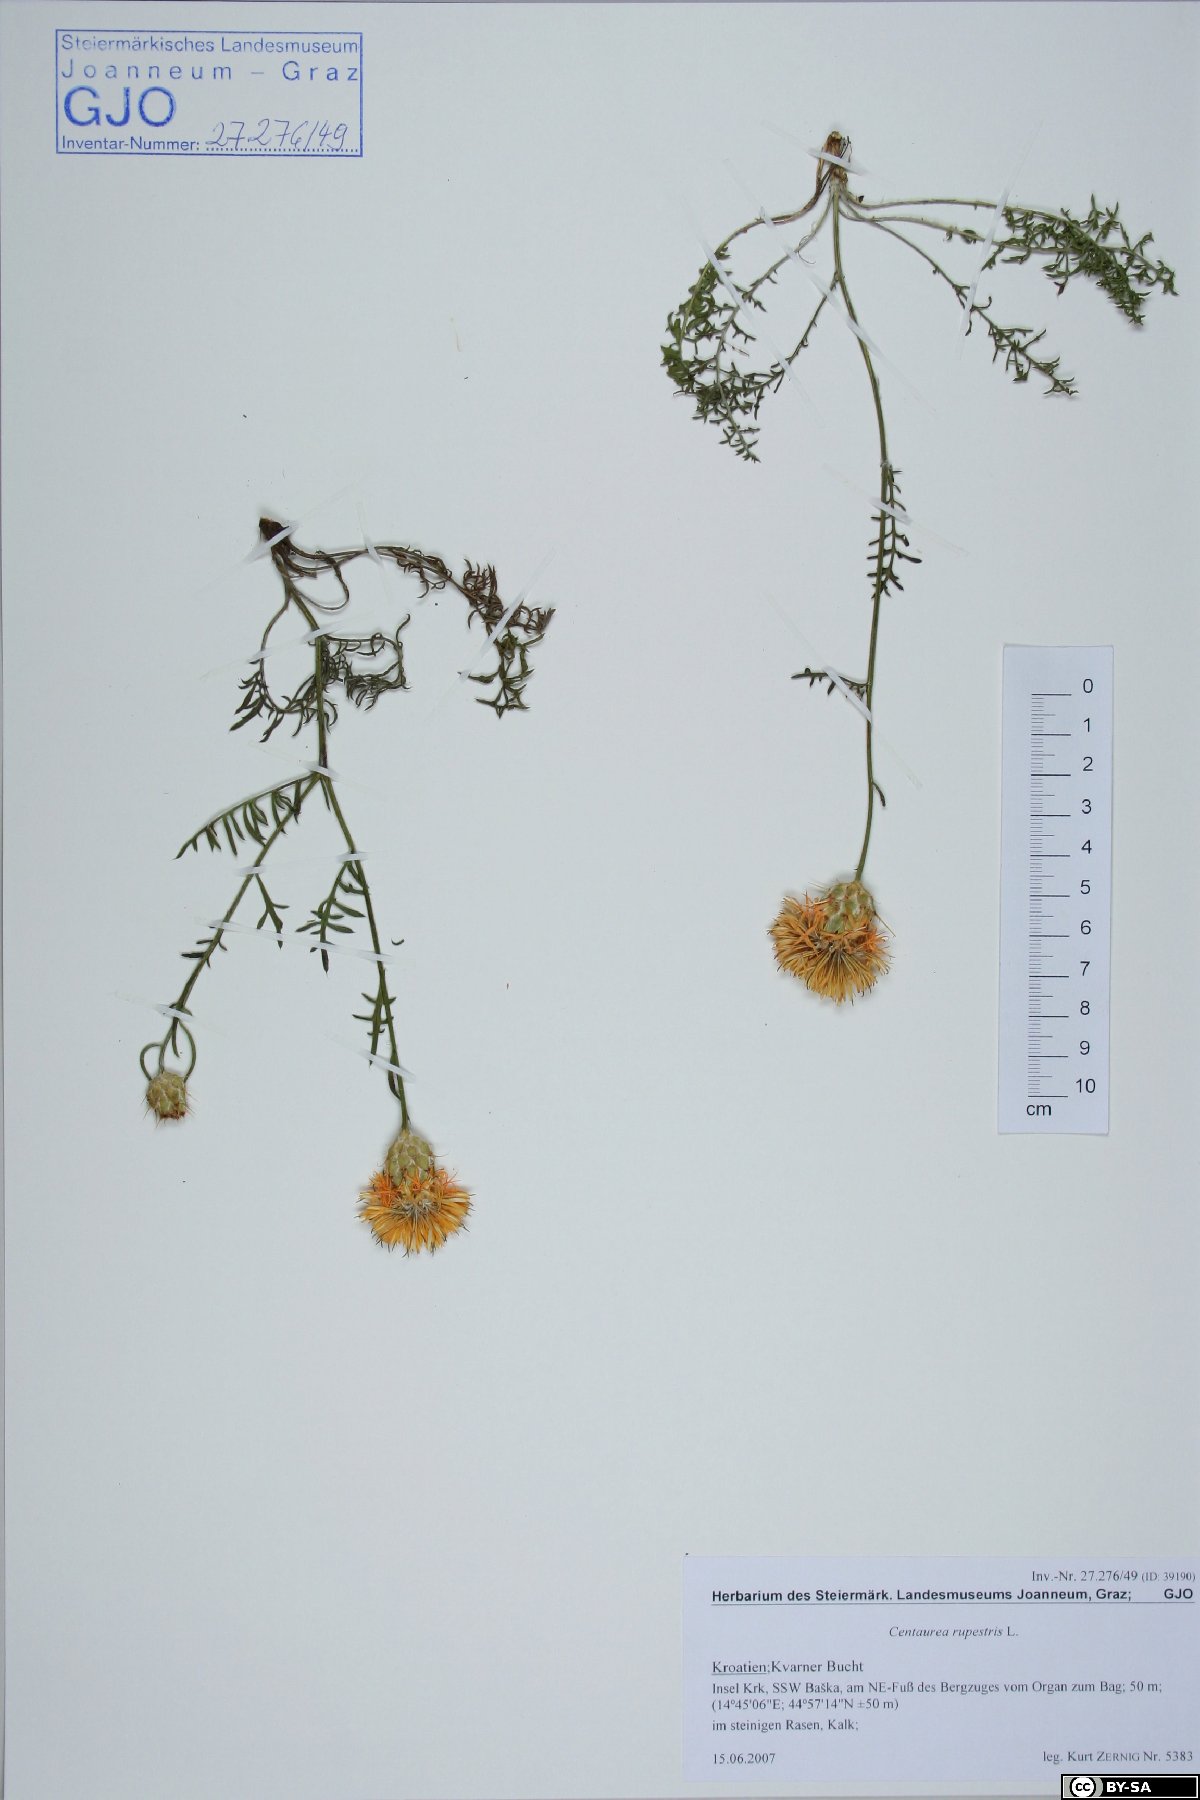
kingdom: Plantae
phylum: Tracheophyta
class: Magnoliopsida
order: Asterales
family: Asteraceae
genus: Centaurea
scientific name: Centaurea rupestris
